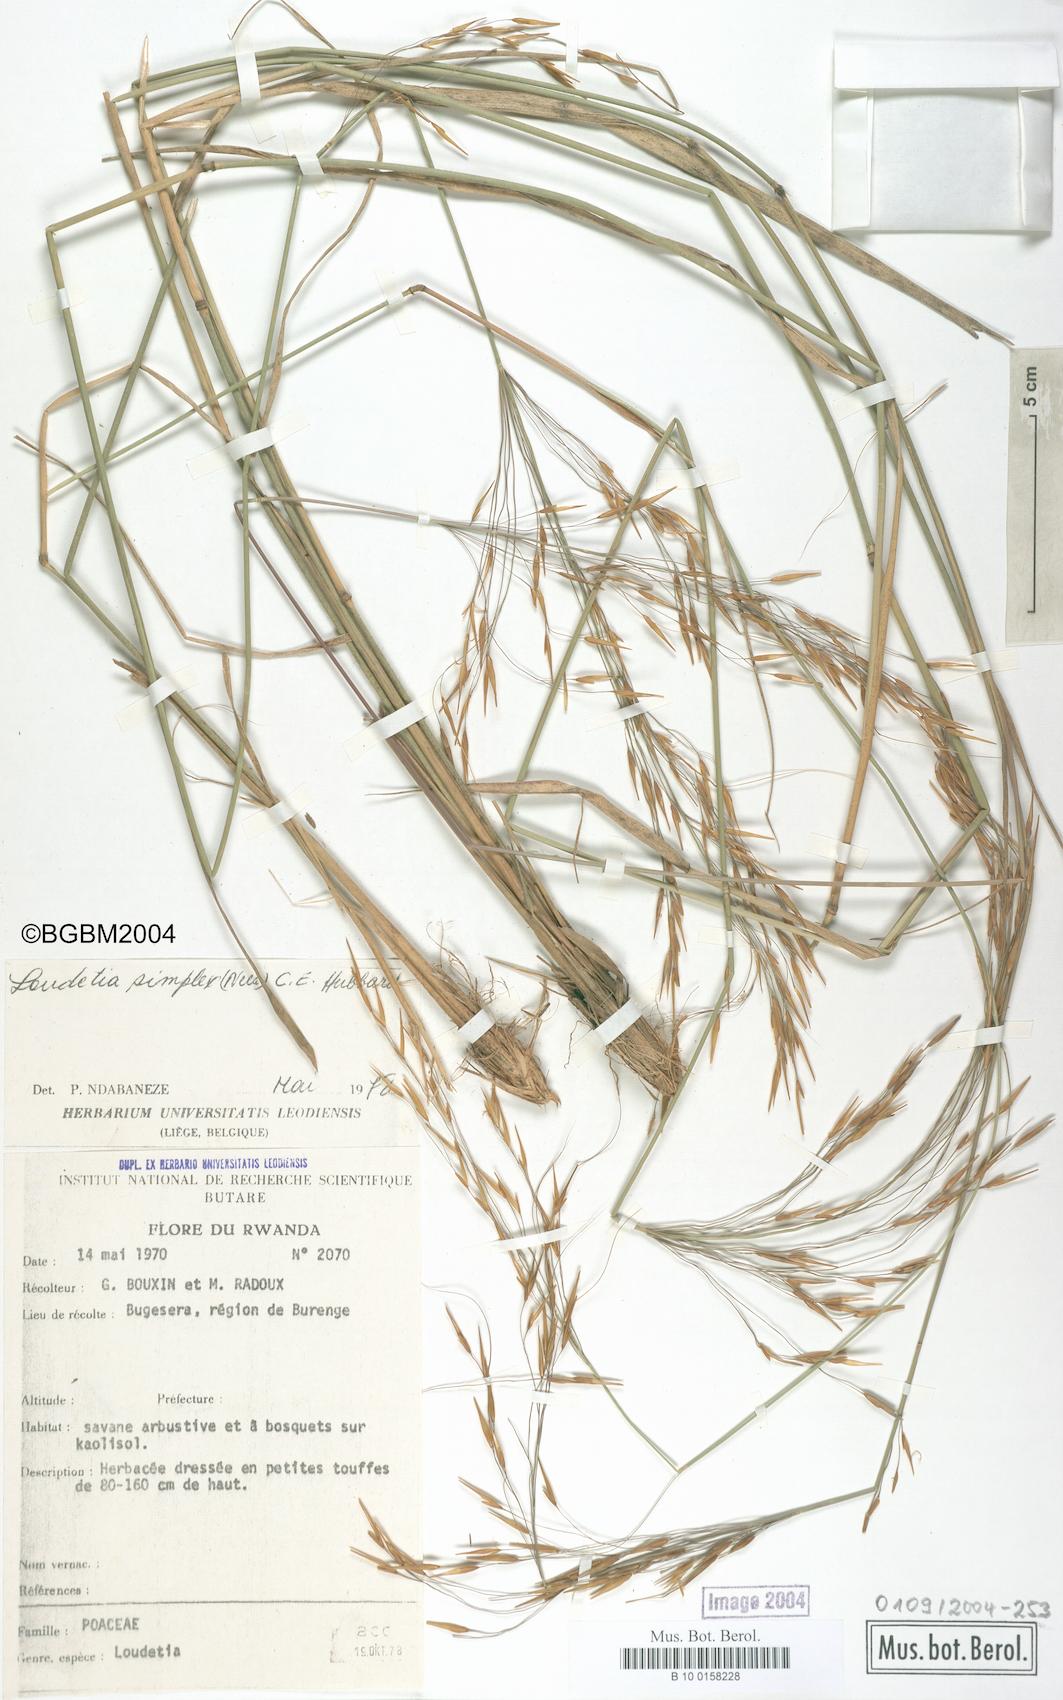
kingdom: Plantae
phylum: Tracheophyta
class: Liliopsida
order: Poales
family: Poaceae
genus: Loudetia
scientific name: Loudetia simplex
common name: Common russet grass
